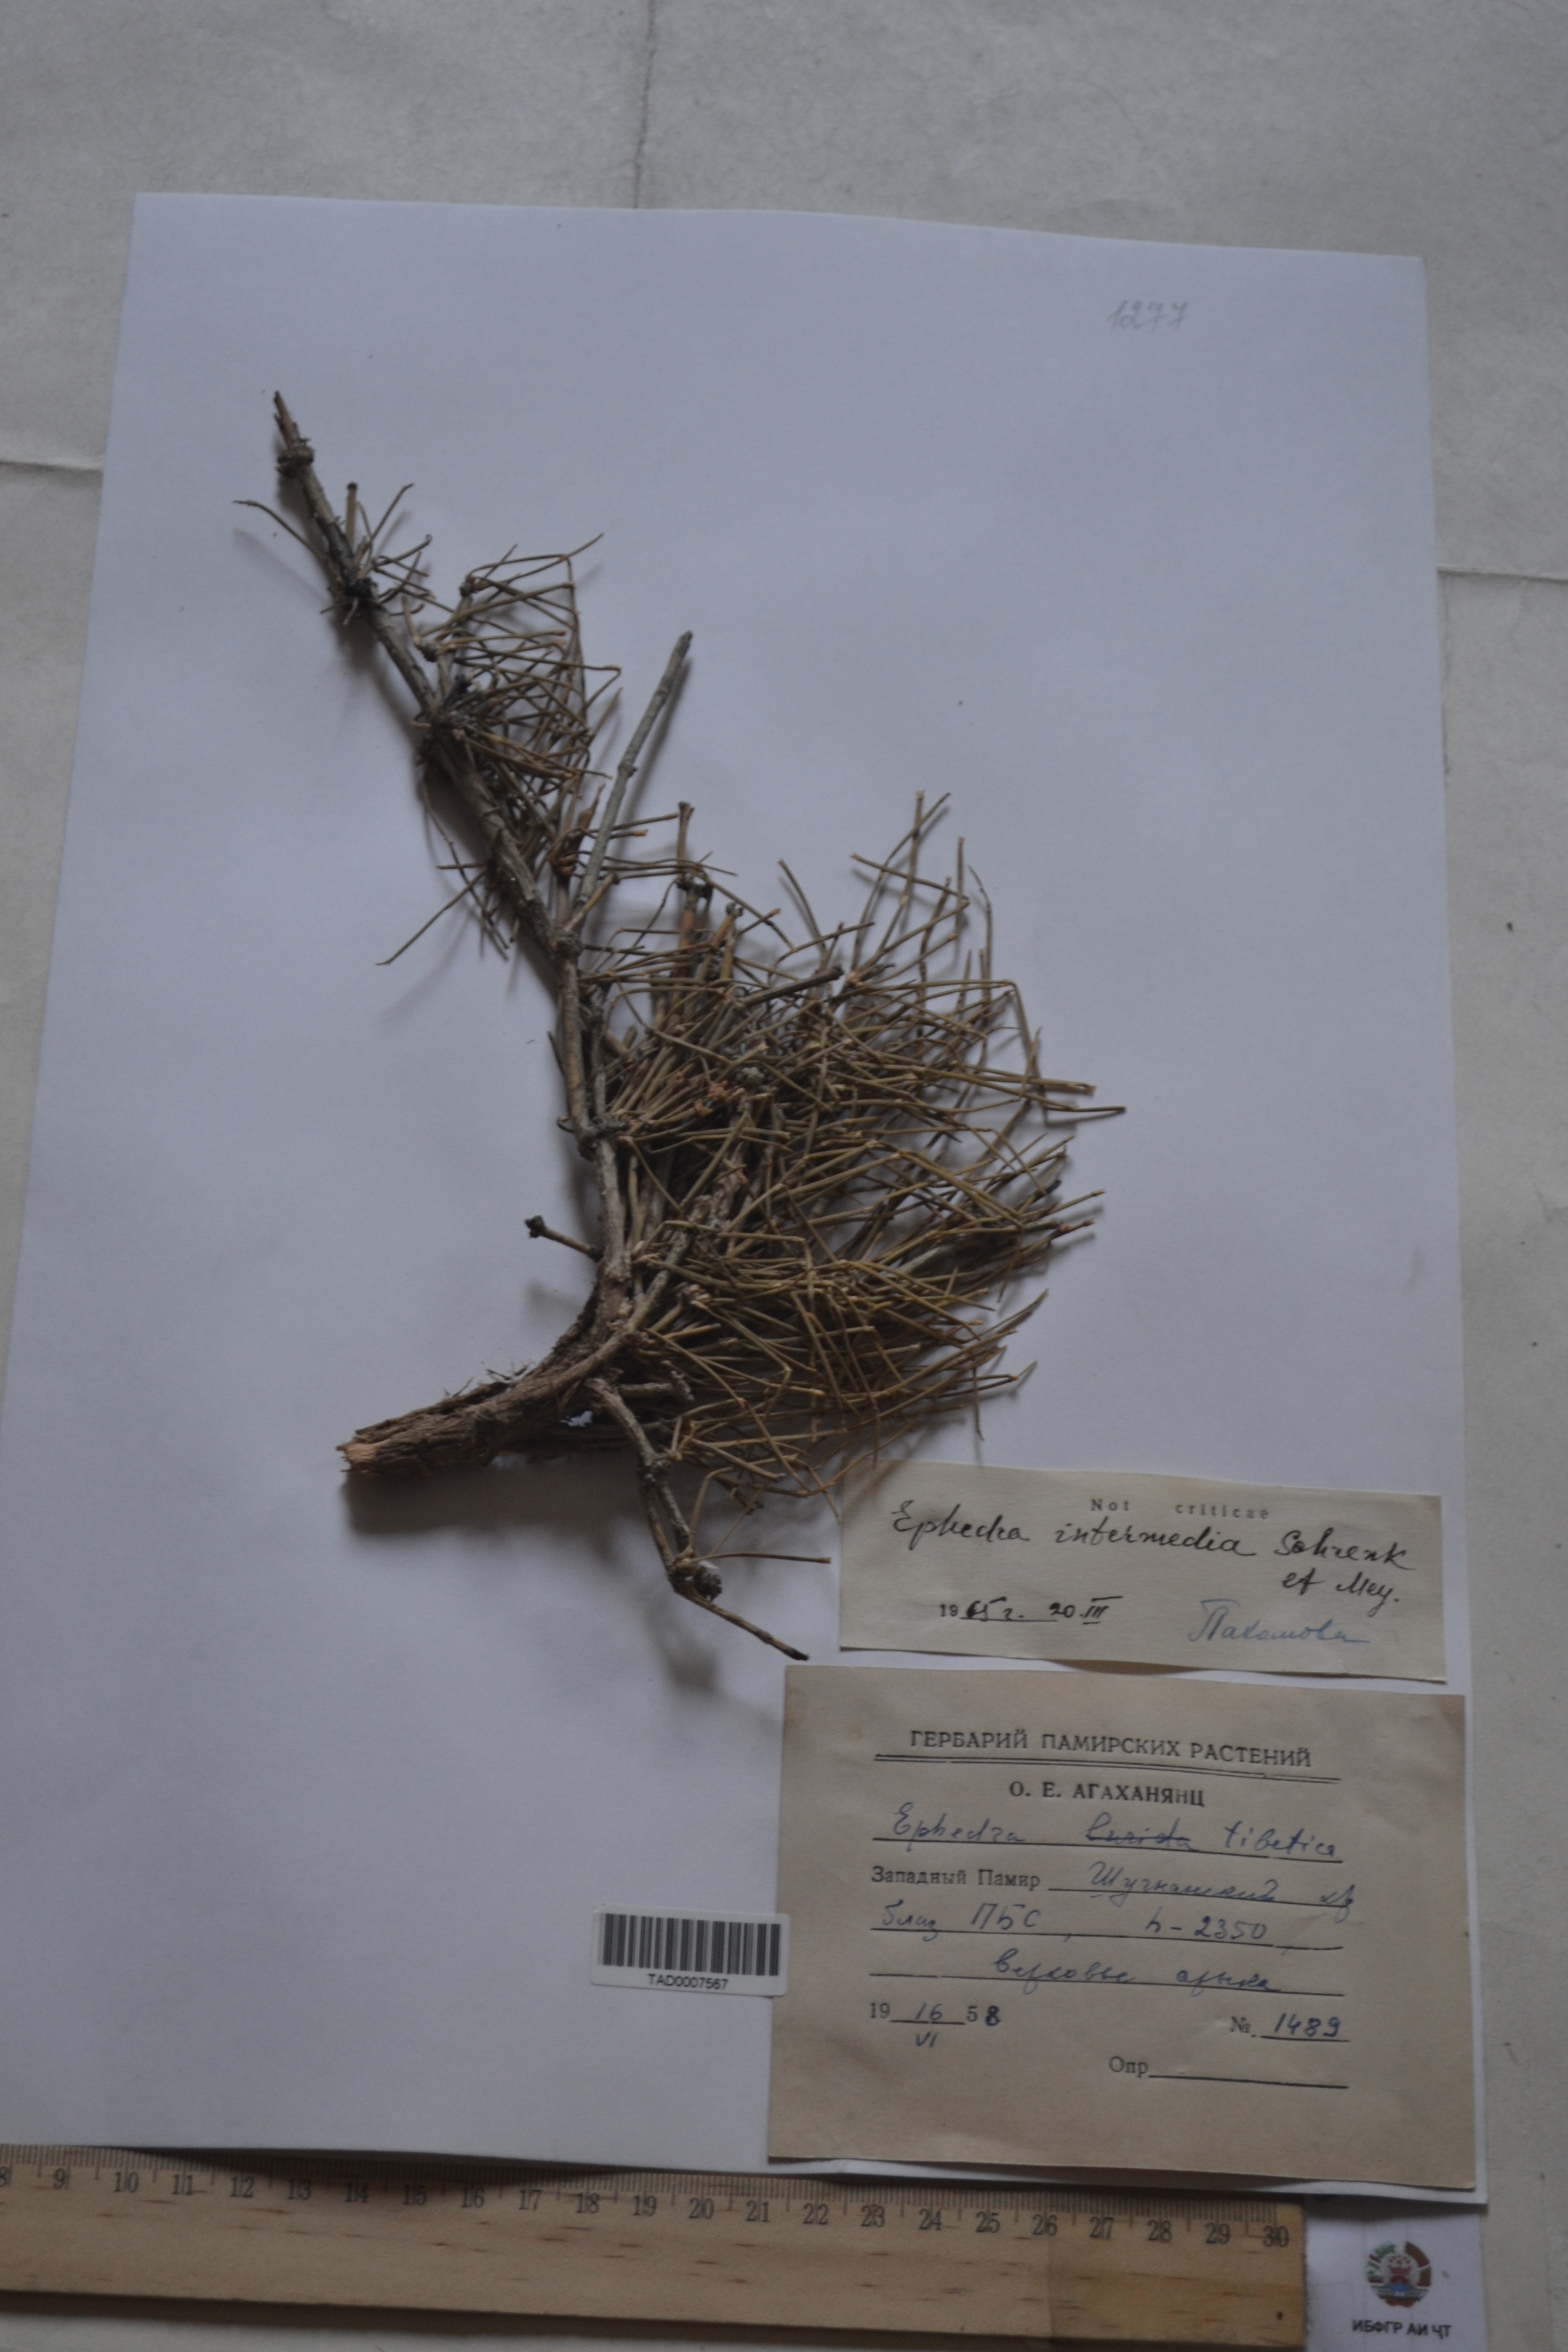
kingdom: Plantae
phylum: Tracheophyta
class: Gnetopsida
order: Ephedrales
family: Ephedraceae
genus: Ephedra
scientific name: Ephedra intermedia
